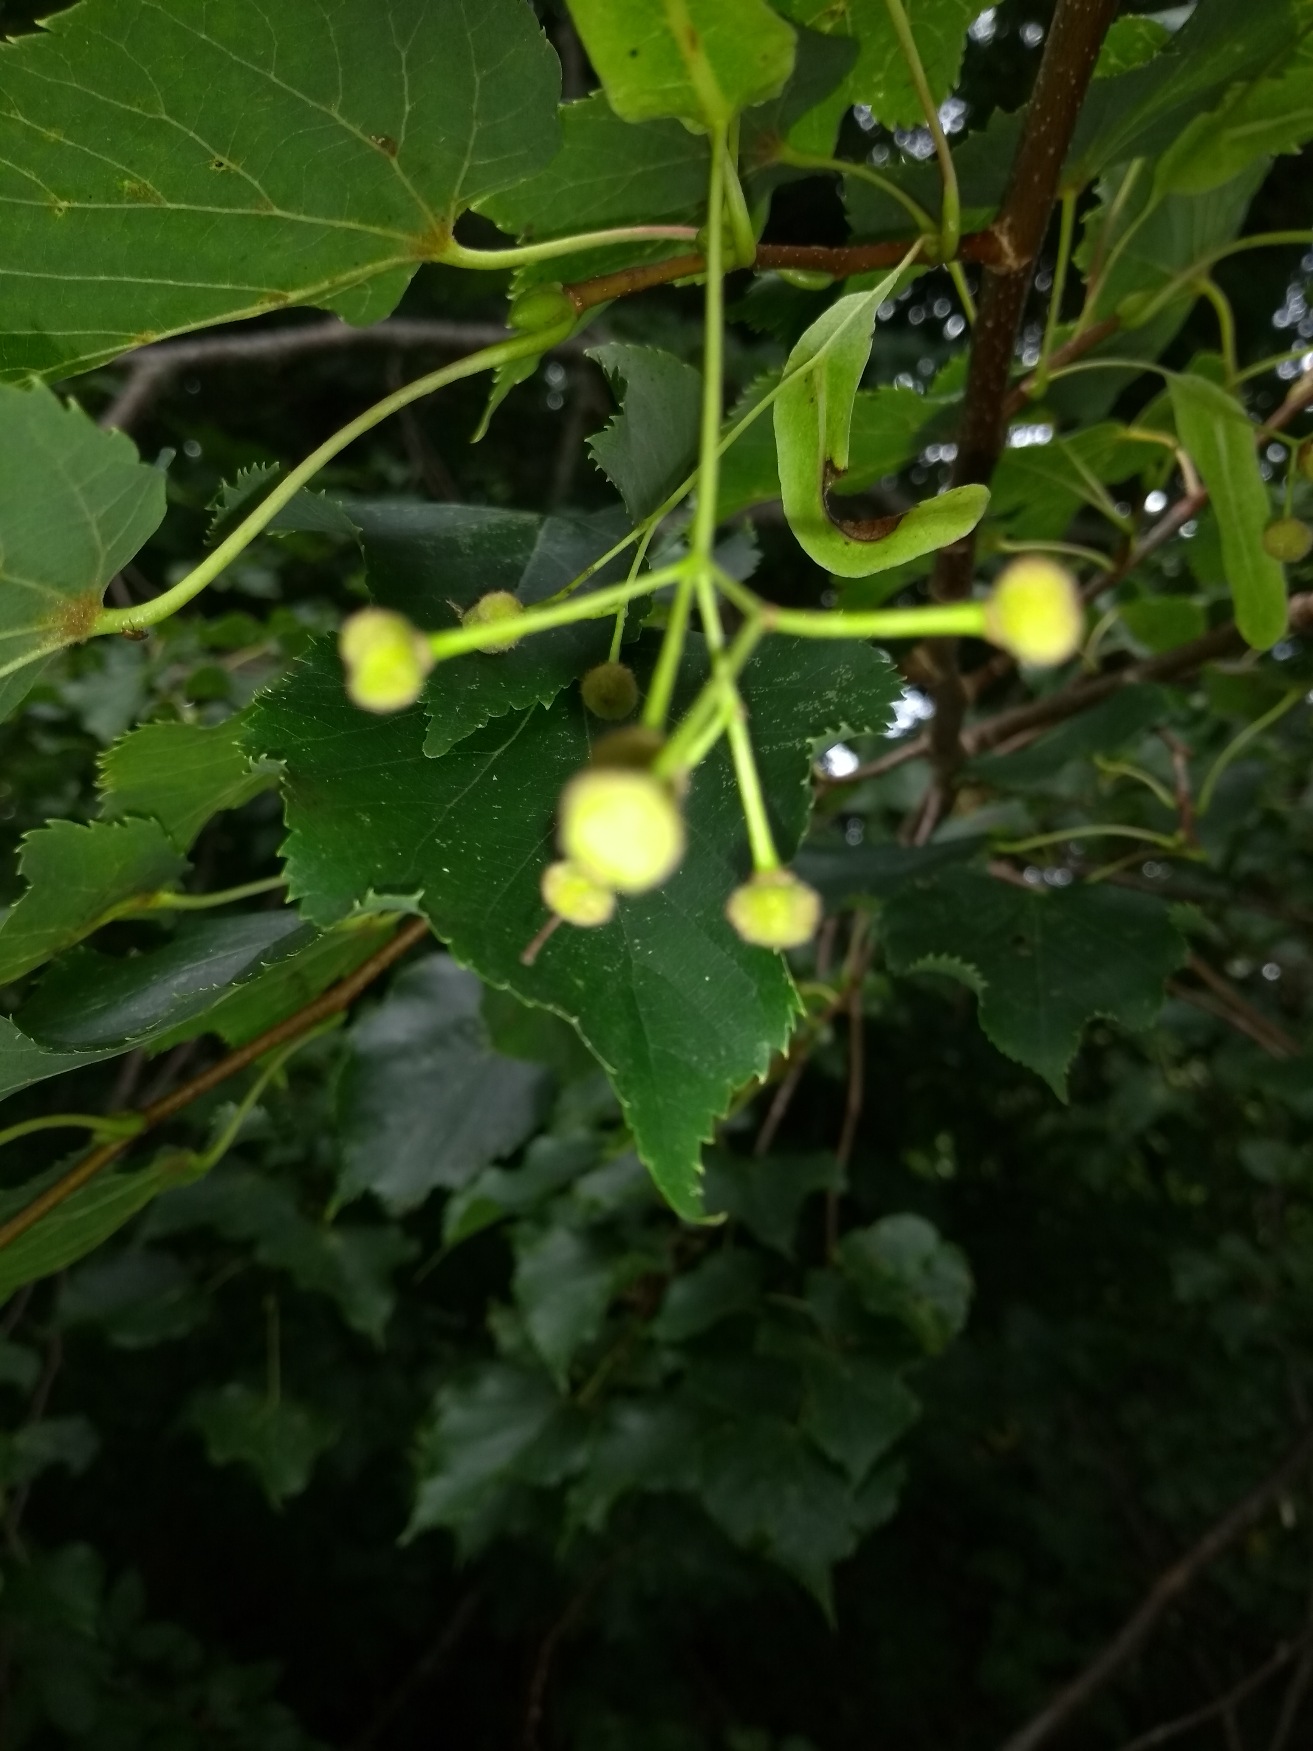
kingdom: Plantae
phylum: Tracheophyta
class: Magnoliopsida
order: Malvales
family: Malvaceae
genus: Tilia
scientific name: Tilia cordata
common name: Småbladet lind
